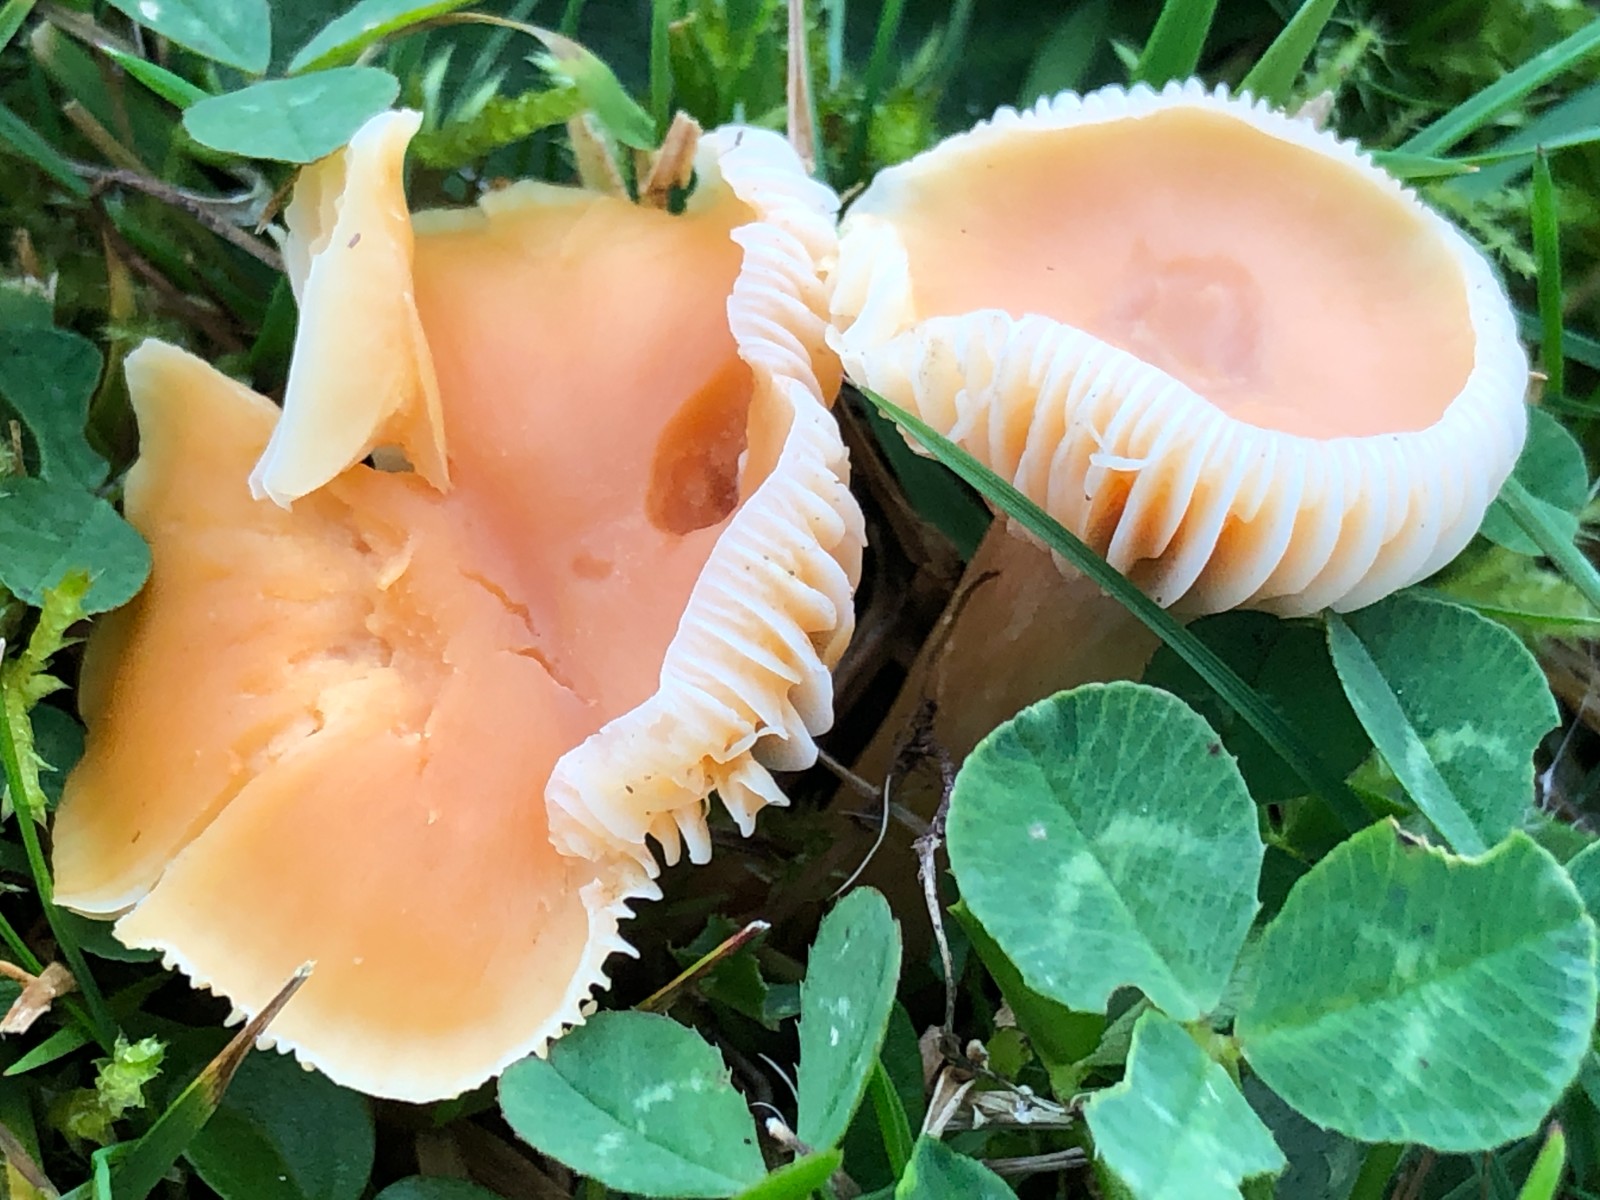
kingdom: Fungi
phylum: Basidiomycota
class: Agaricomycetes
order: Agaricales
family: Hygrophoraceae
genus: Cuphophyllus
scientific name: Cuphophyllus pratensis
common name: eng-vokshat
